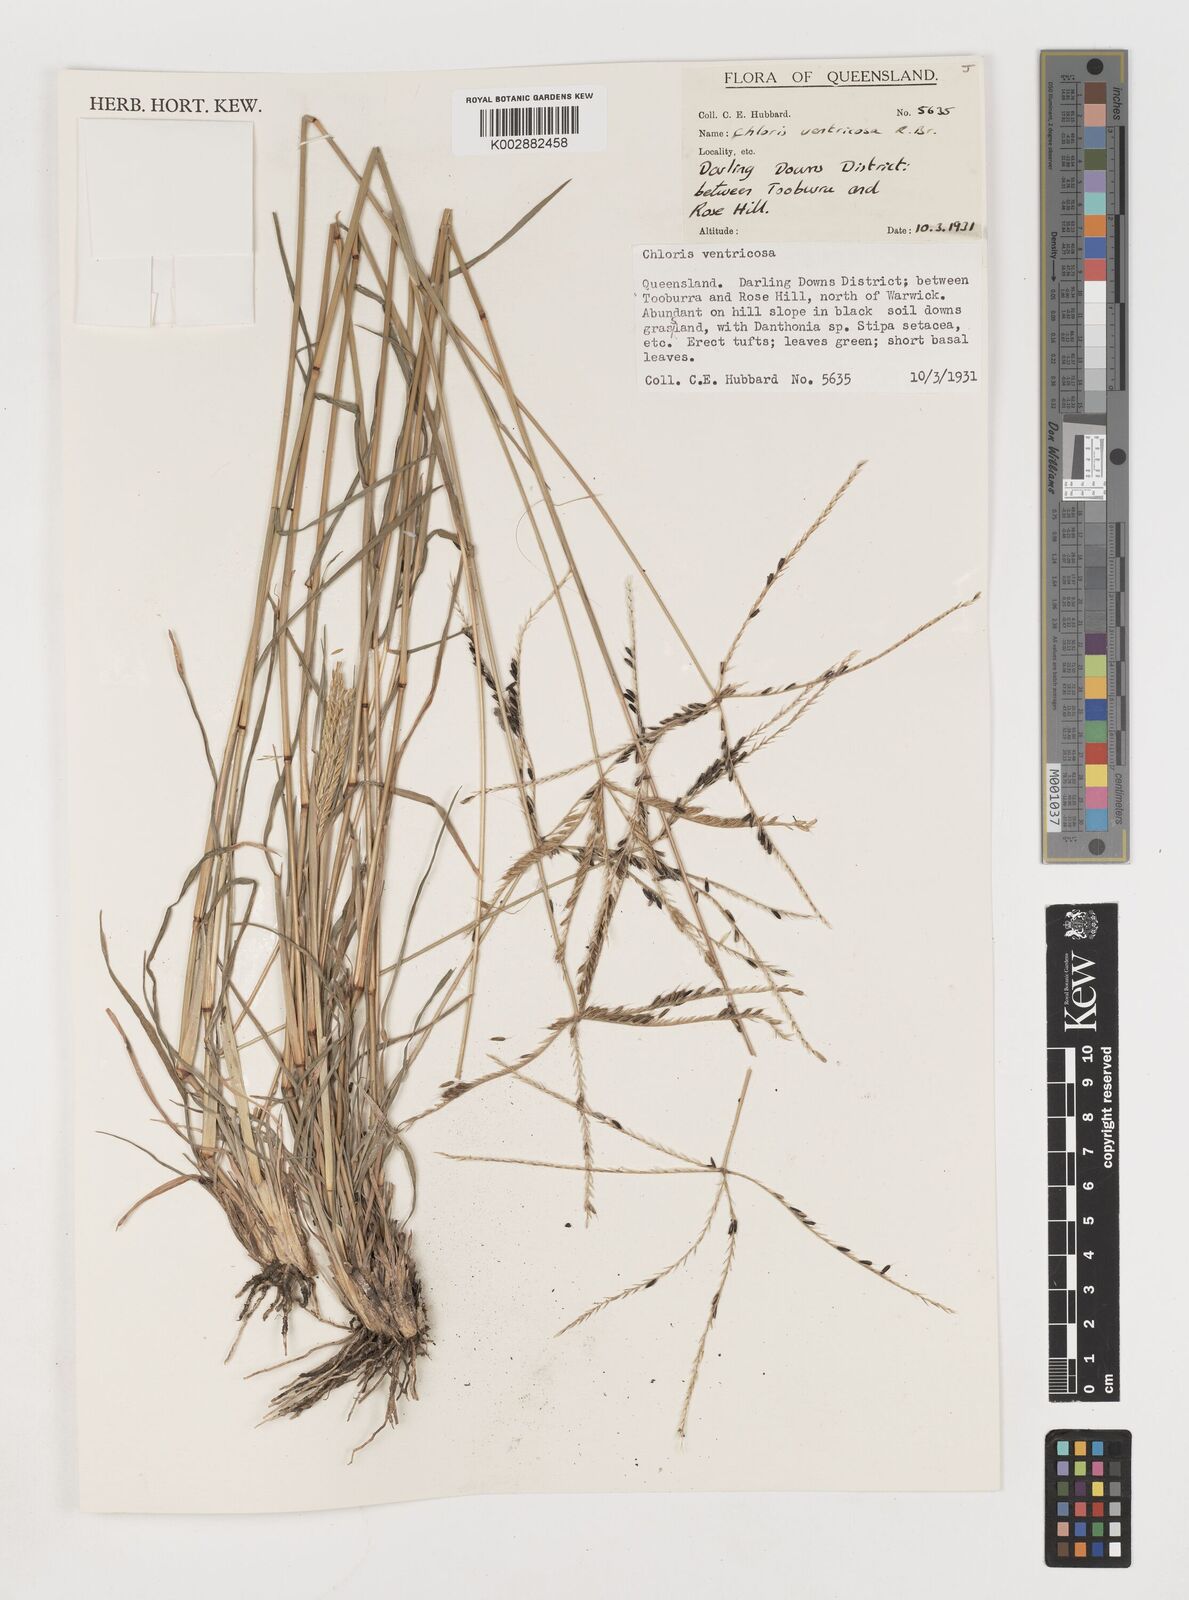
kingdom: Plantae
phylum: Tracheophyta
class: Liliopsida
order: Poales
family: Poaceae
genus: Chloris
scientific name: Chloris ventricosa
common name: Australian windmill grass
